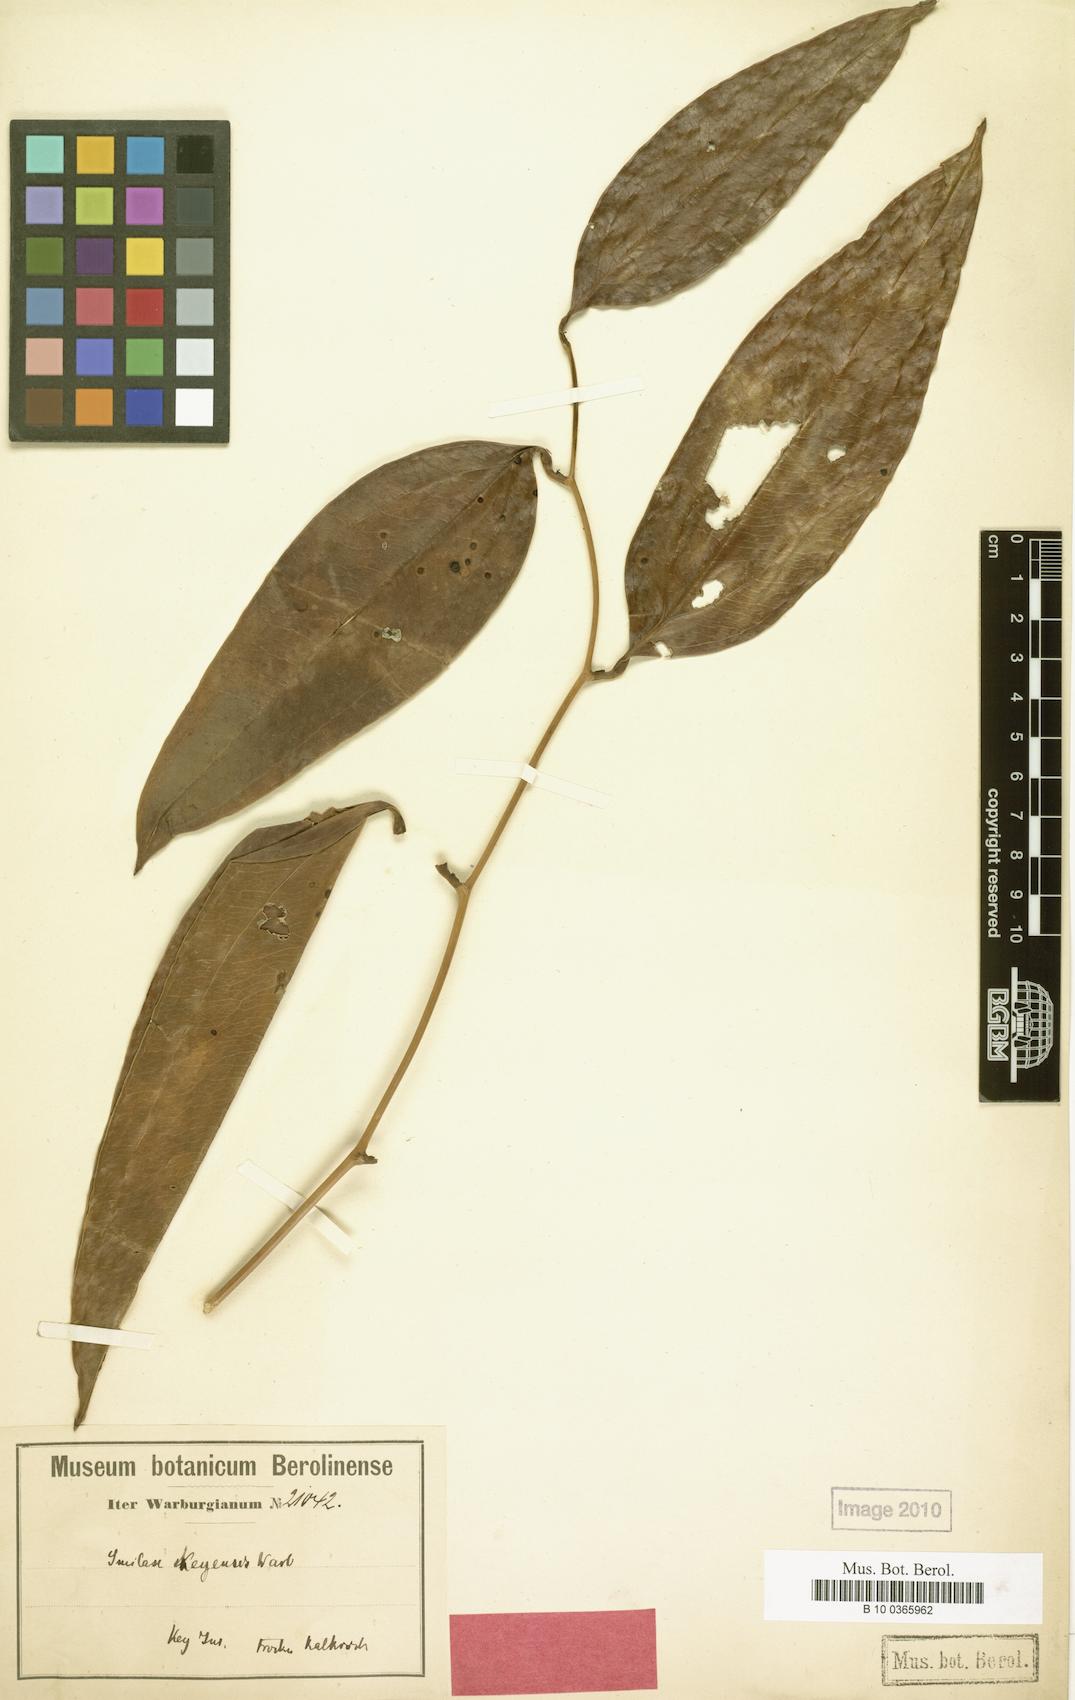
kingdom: Plantae
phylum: Tracheophyta
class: Liliopsida
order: Liliales
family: Smilacaceae
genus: Smilax
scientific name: Smilax keyensis
